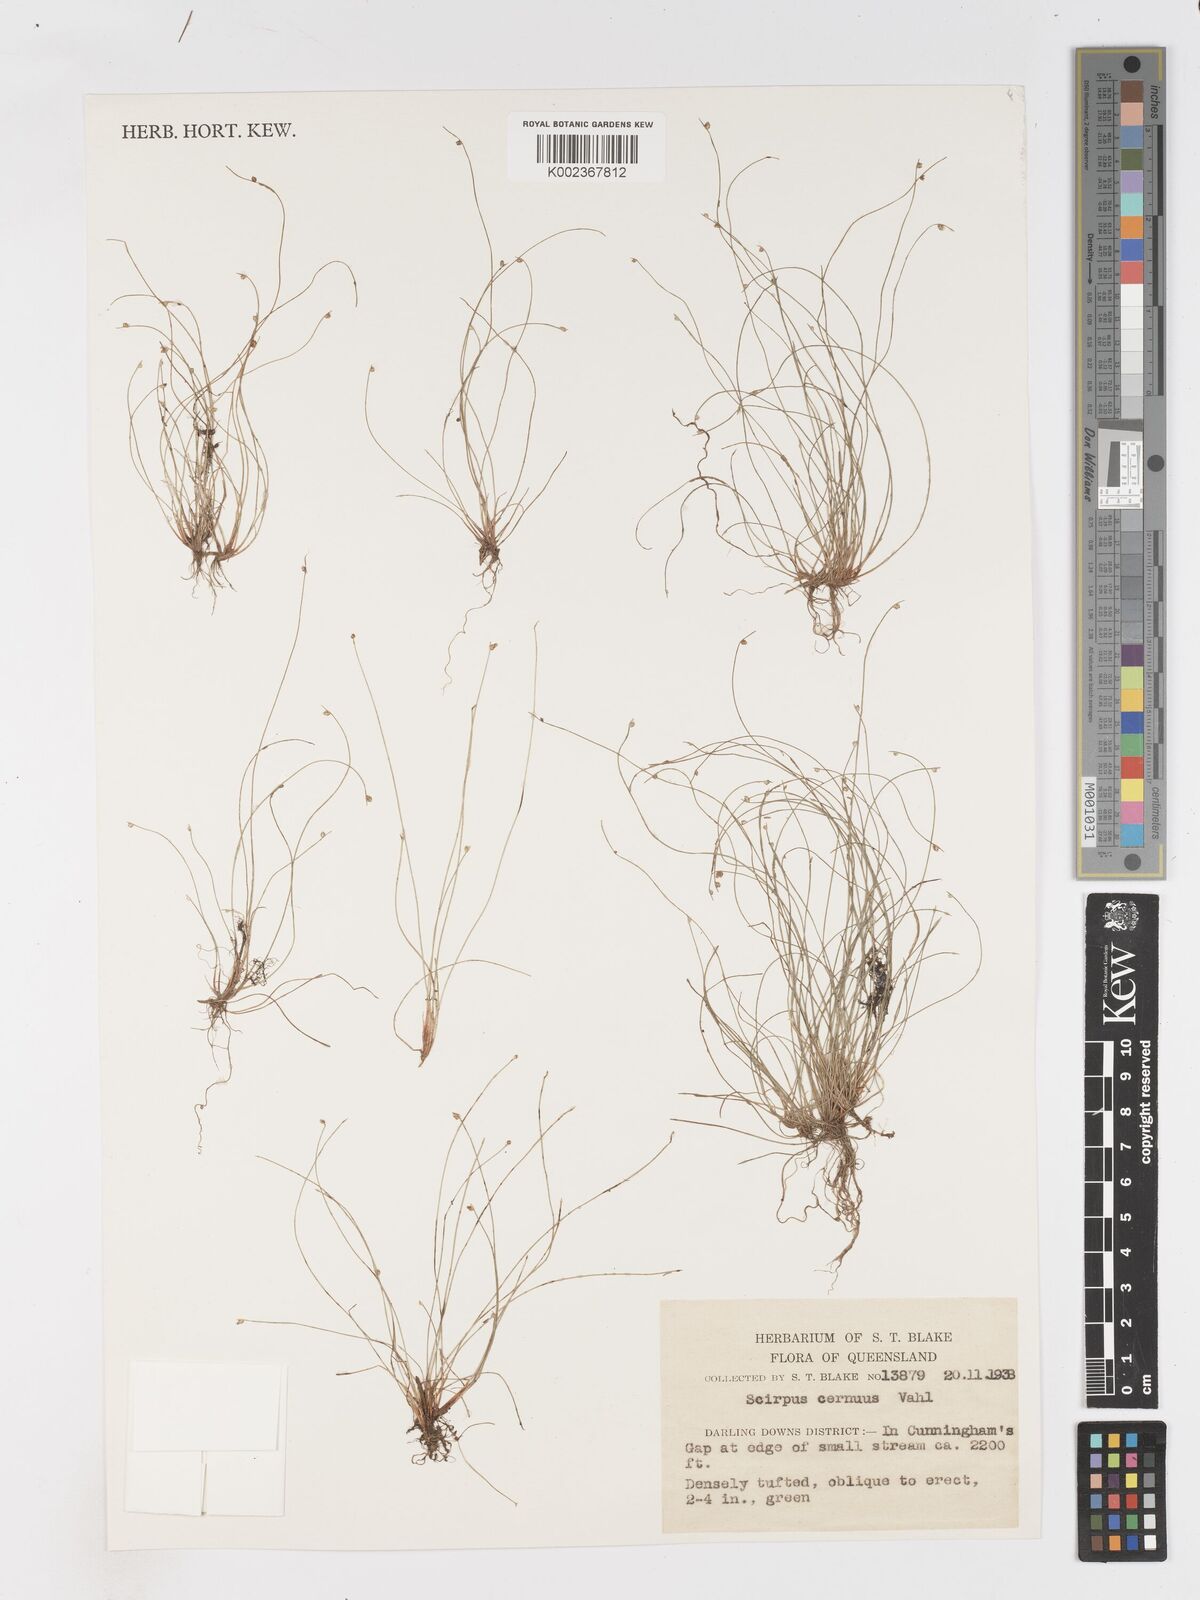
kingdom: Plantae
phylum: Tracheophyta
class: Liliopsida
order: Poales
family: Cyperaceae
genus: Isolepis
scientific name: Isolepis cernua
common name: Slender club-rush
